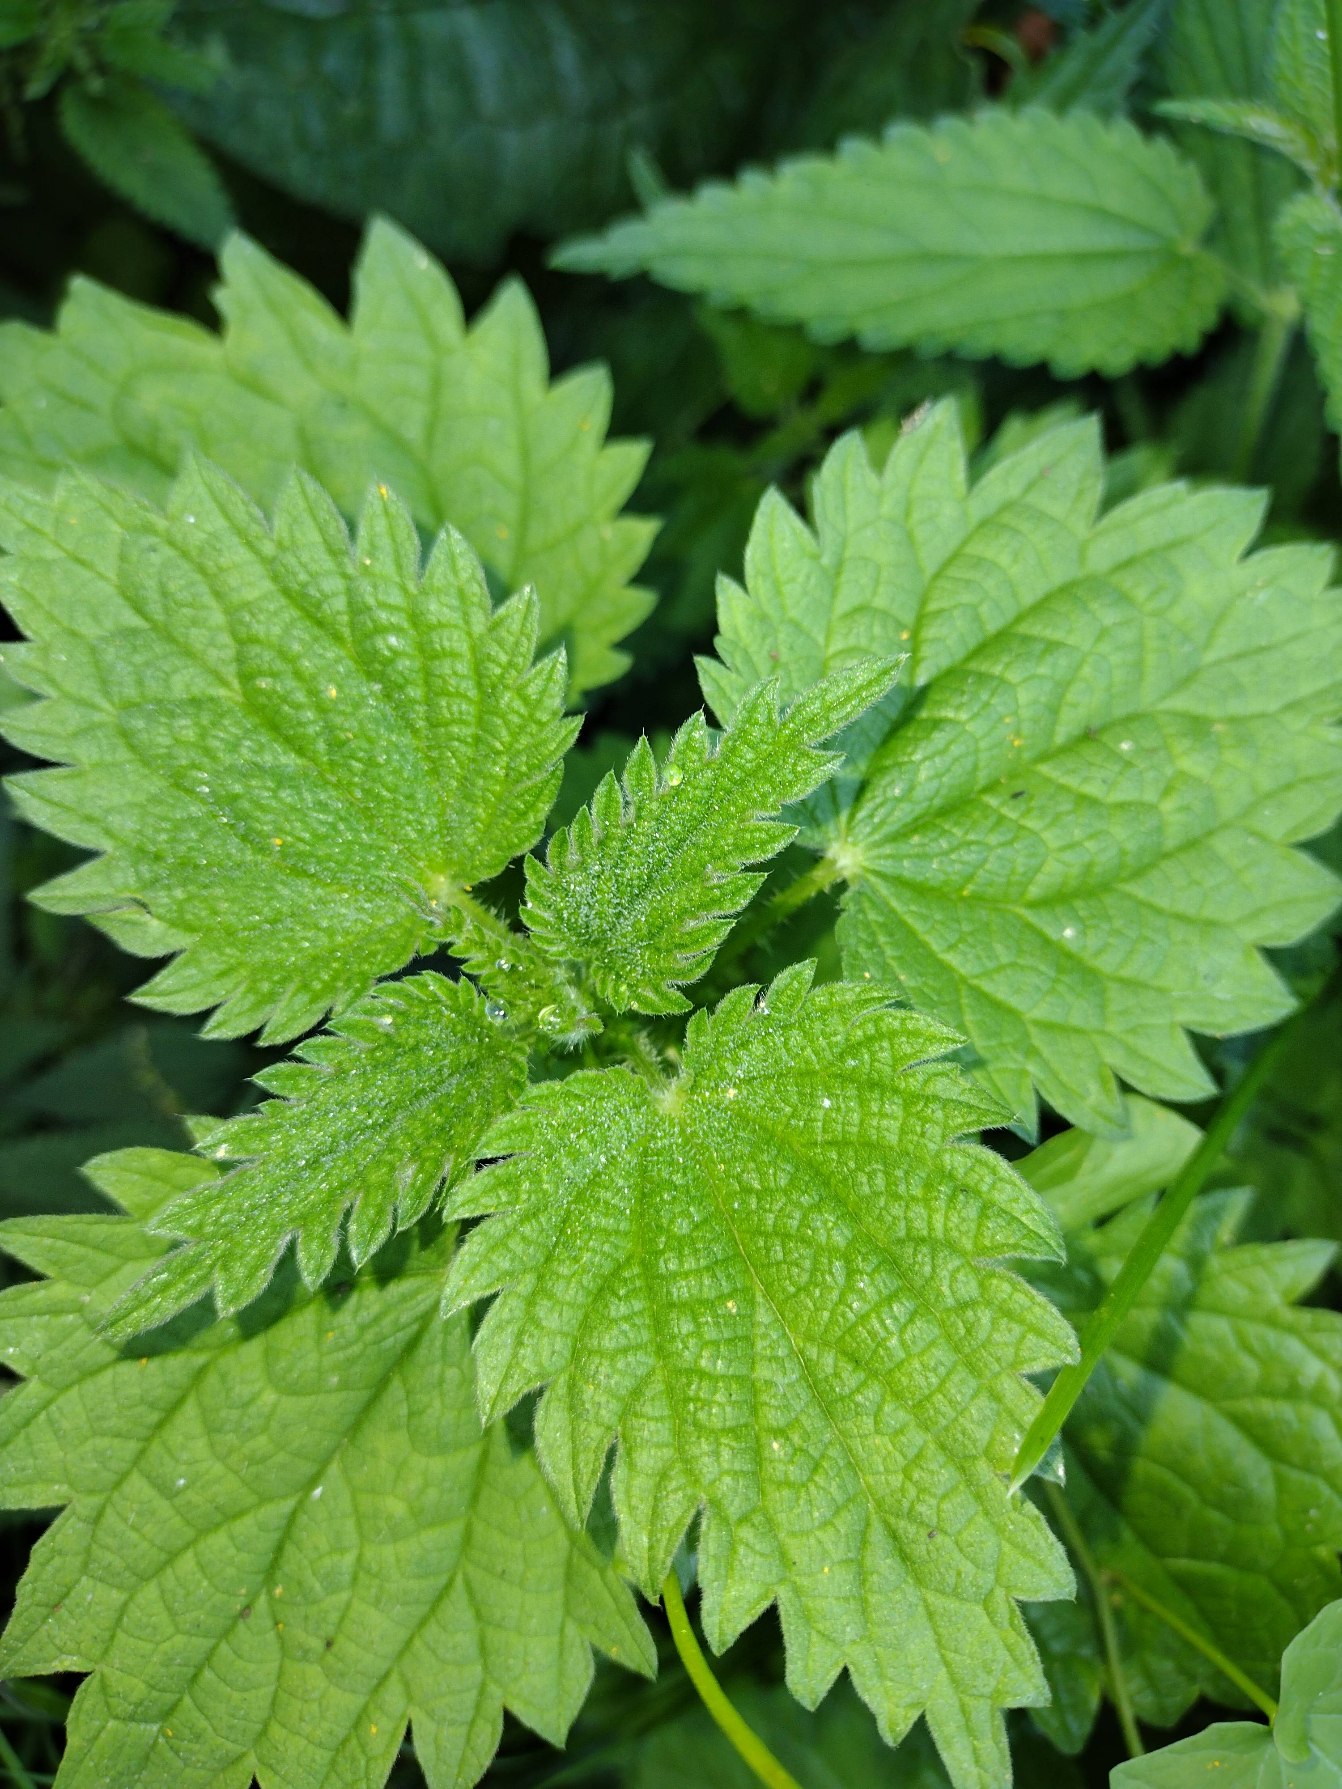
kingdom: Plantae
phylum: Tracheophyta
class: Magnoliopsida
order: Rosales
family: Urticaceae
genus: Urtica
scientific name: Urtica dioica
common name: Stor nælde
